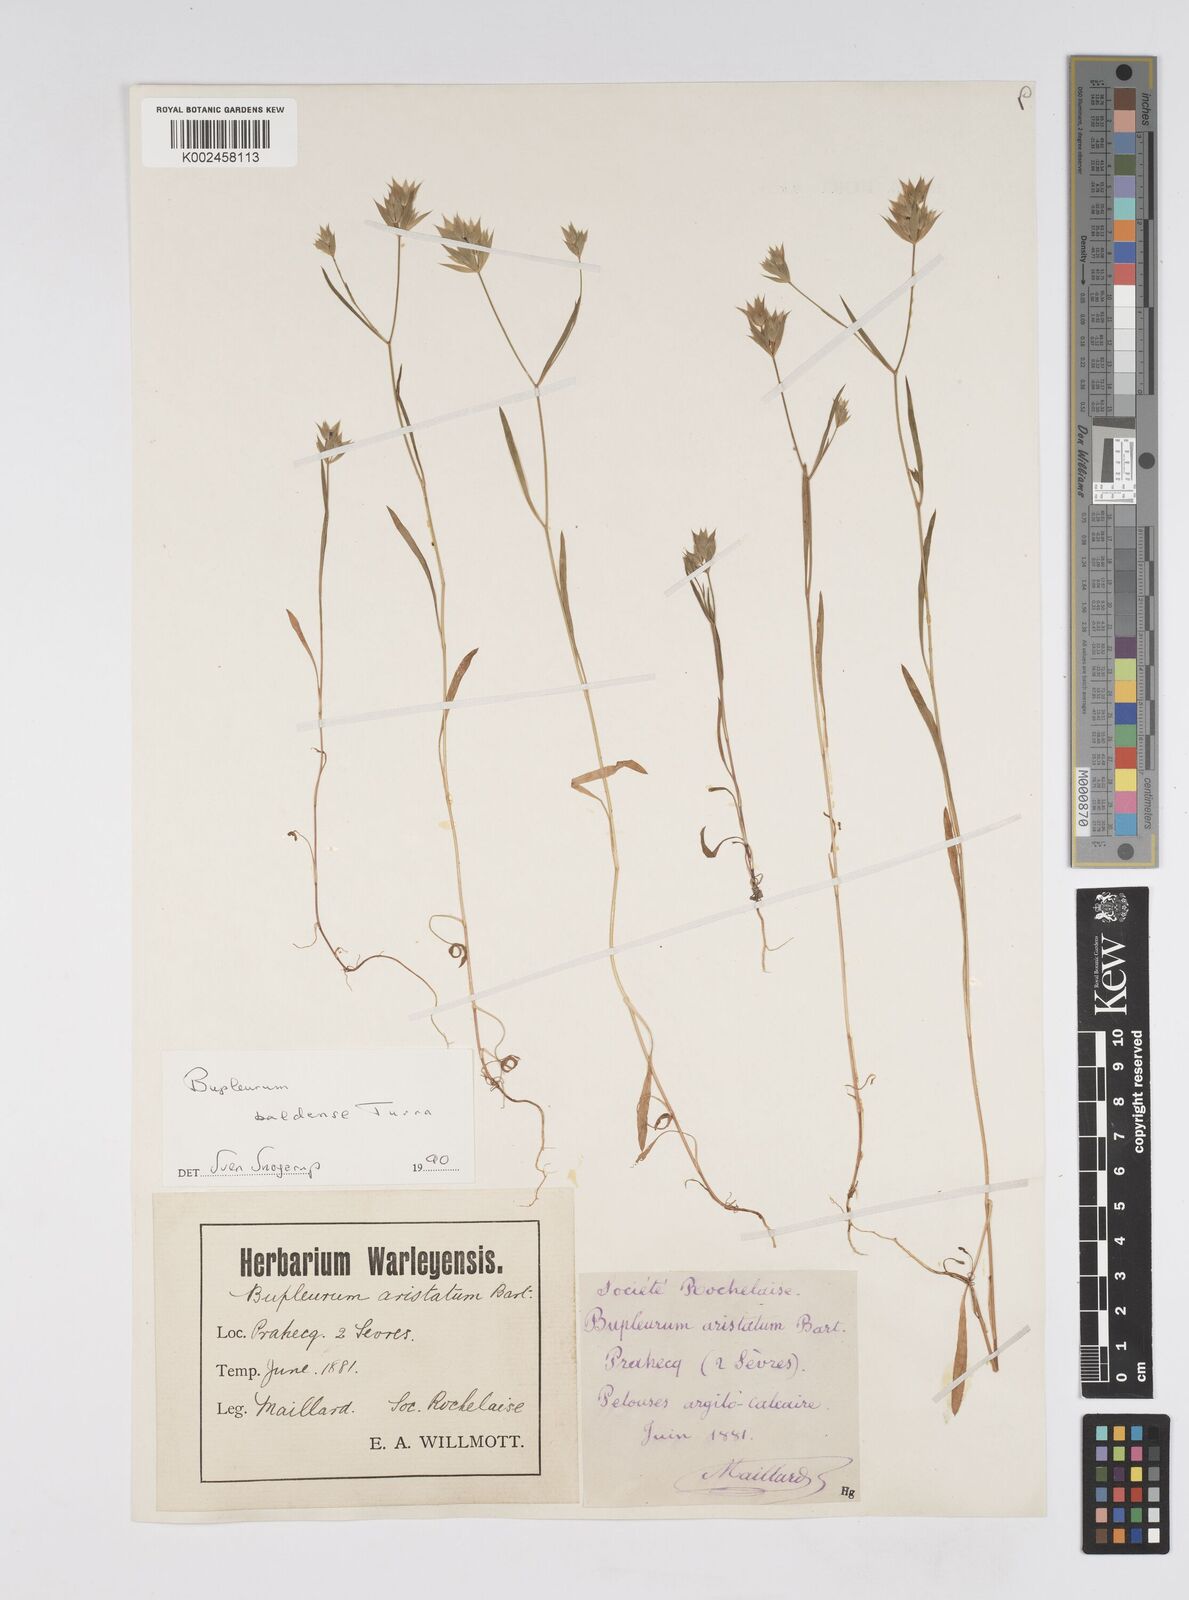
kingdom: Plantae
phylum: Tracheophyta
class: Magnoliopsida
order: Apiales
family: Apiaceae
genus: Bupleurum
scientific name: Bupleurum baldense
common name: Small hare's-ear
